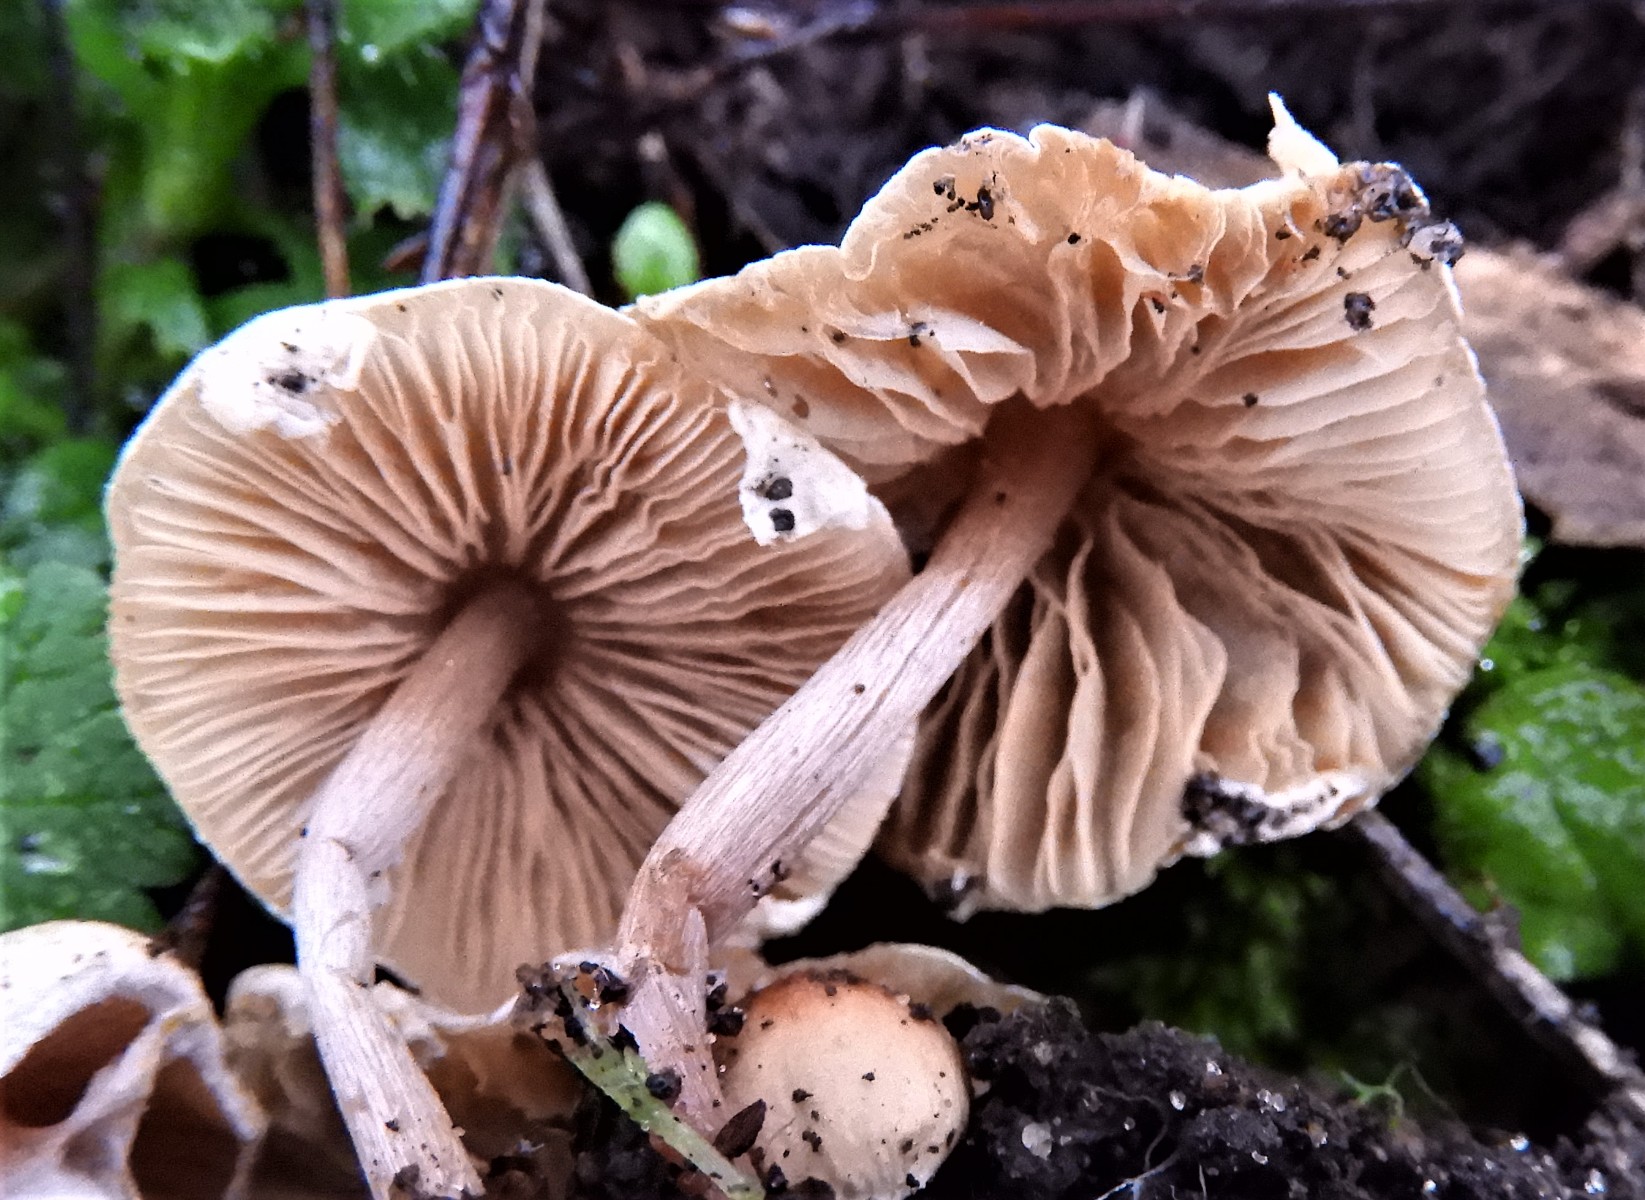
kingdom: Fungi
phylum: Basidiomycota
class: Agaricomycetes
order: Agaricales
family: Agaricaceae
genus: Lepiota
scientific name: Lepiota cristata
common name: stinkende parasolhat
